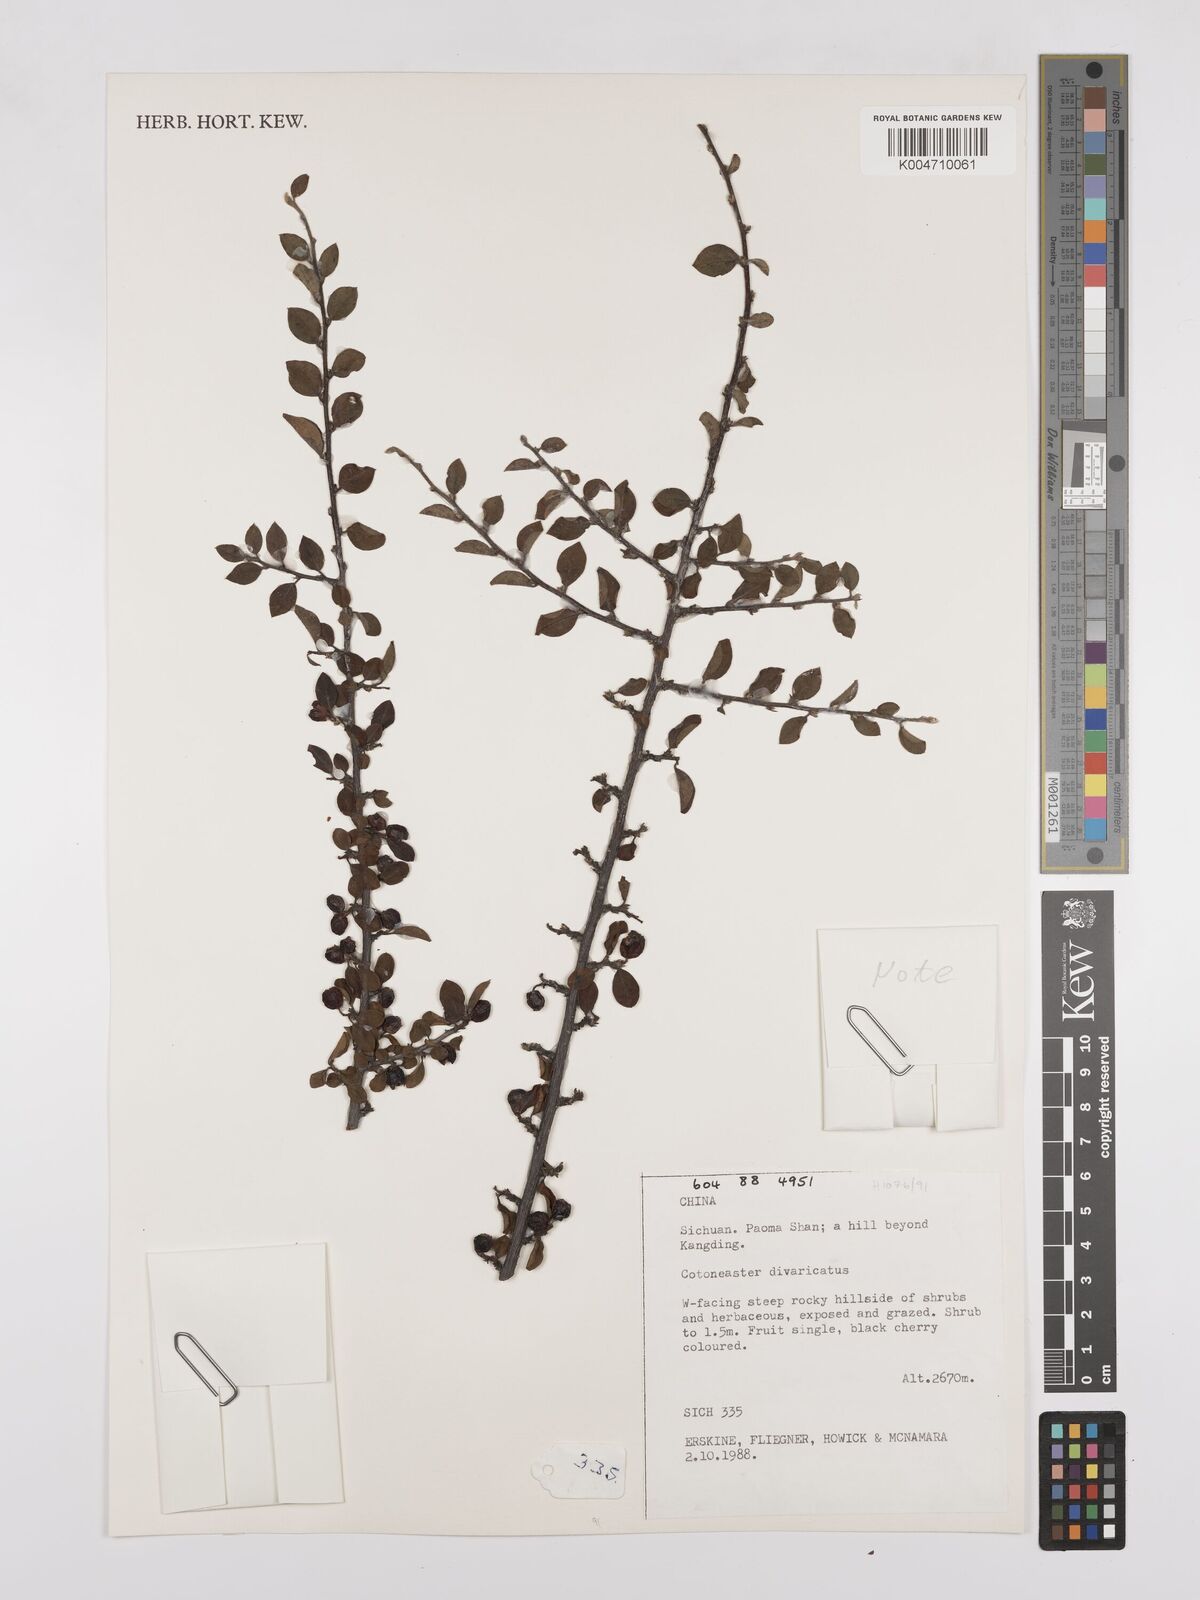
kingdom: Plantae
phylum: Tracheophyta
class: Magnoliopsida
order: Rosales
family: Rosaceae
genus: Cotoneaster
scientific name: Cotoneaster divaricatus
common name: Spreading cotoneaster
